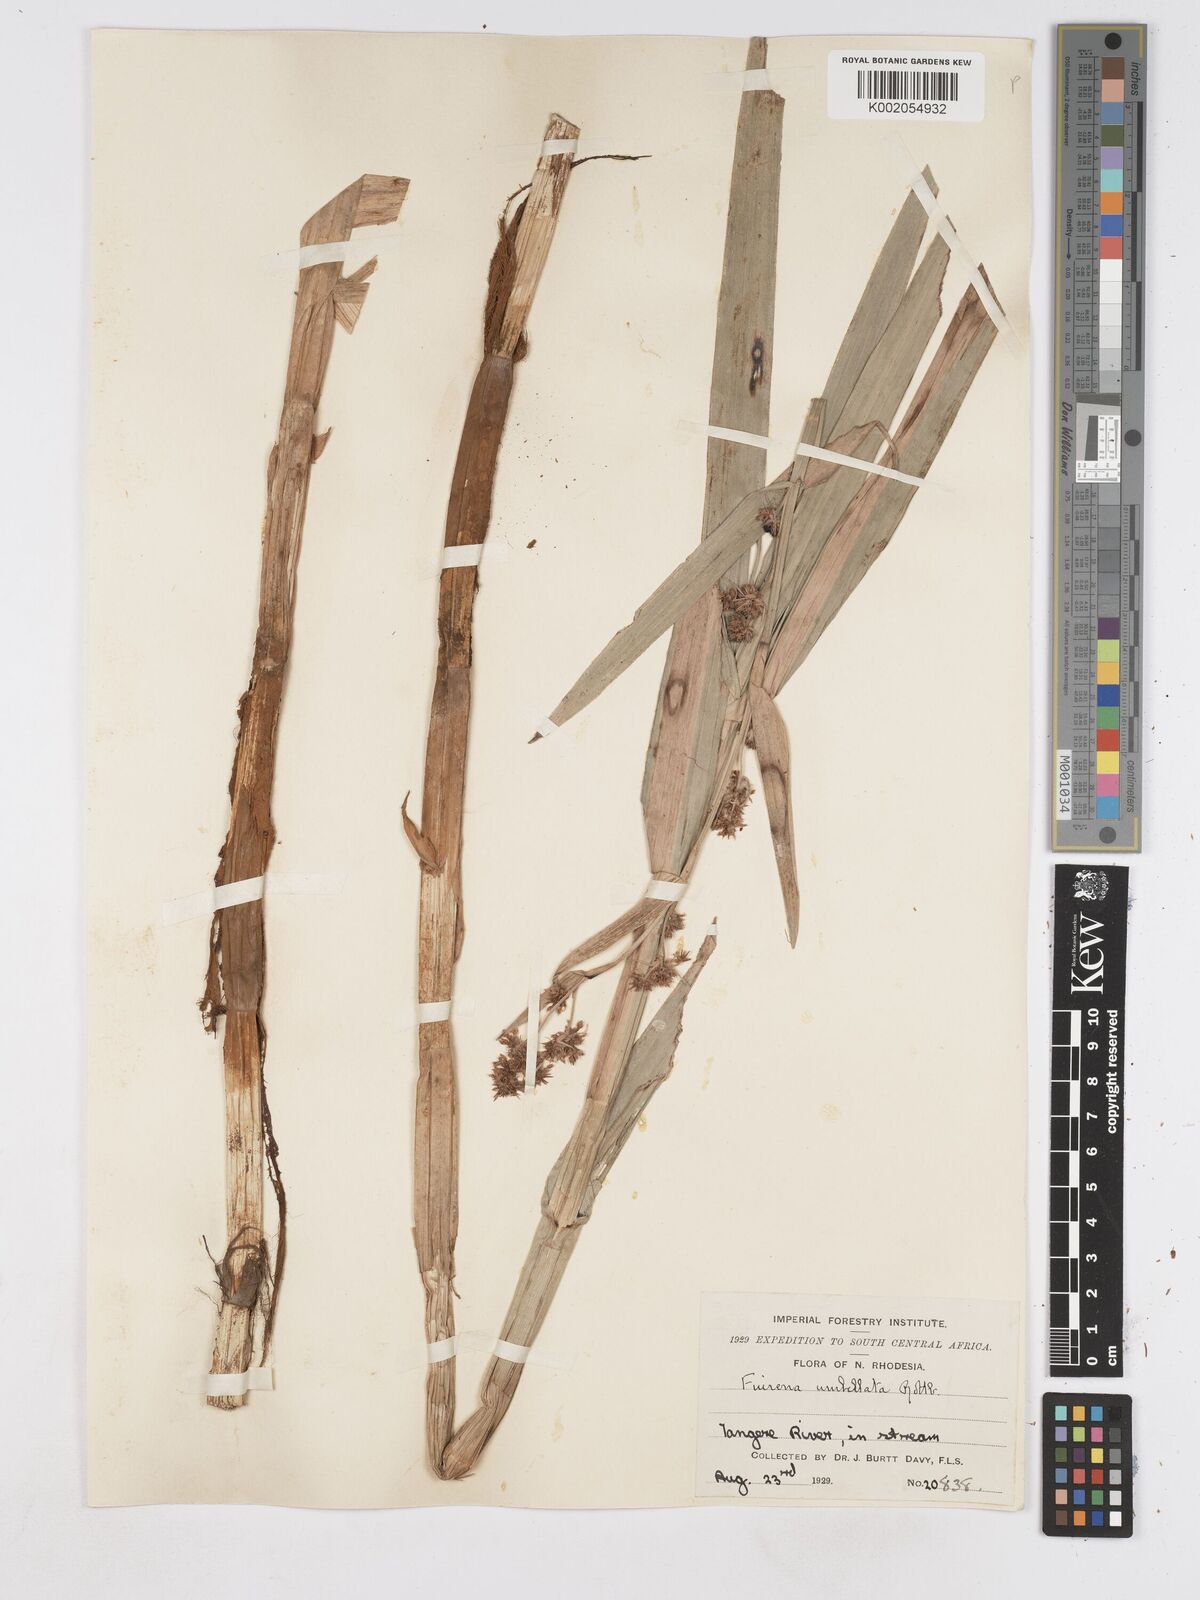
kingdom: Plantae
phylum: Tracheophyta
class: Liliopsida
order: Poales
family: Cyperaceae
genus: Fuirena
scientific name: Fuirena umbellata
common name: Yefen
